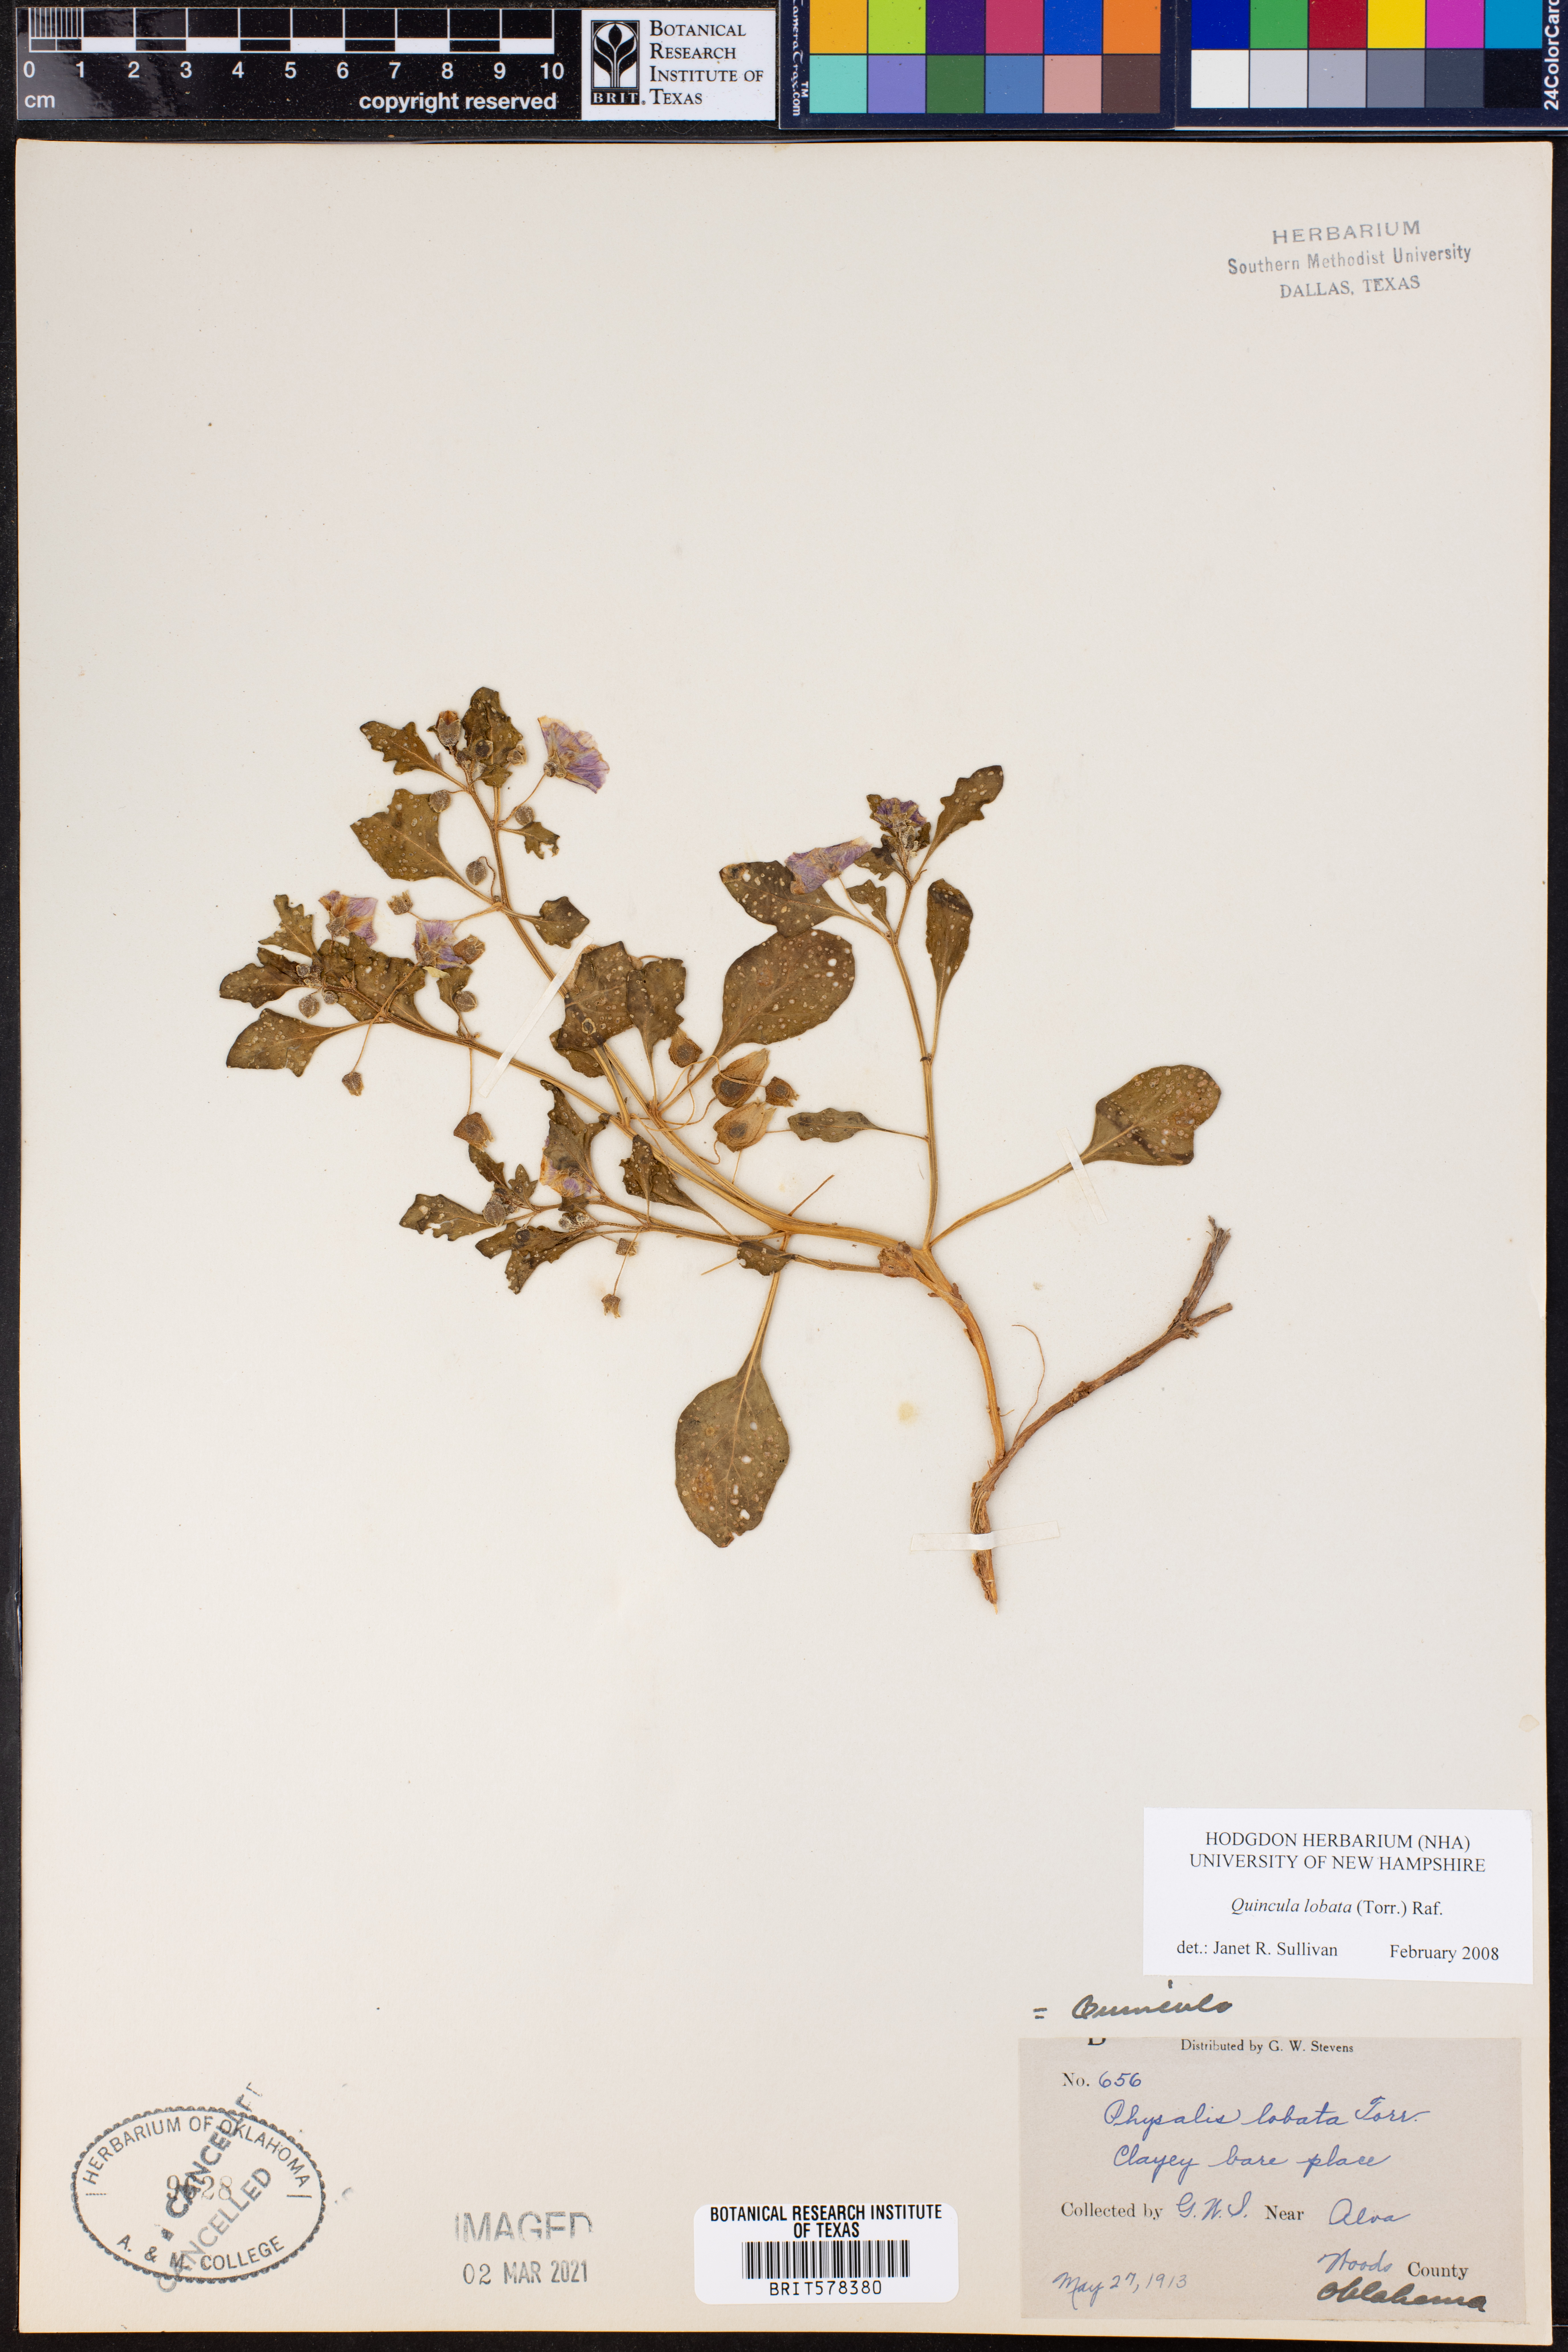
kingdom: Plantae
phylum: Tracheophyta
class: Magnoliopsida
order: Solanales
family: Solanaceae
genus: Quincula
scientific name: Quincula lobata
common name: Purple-ground-cherry
